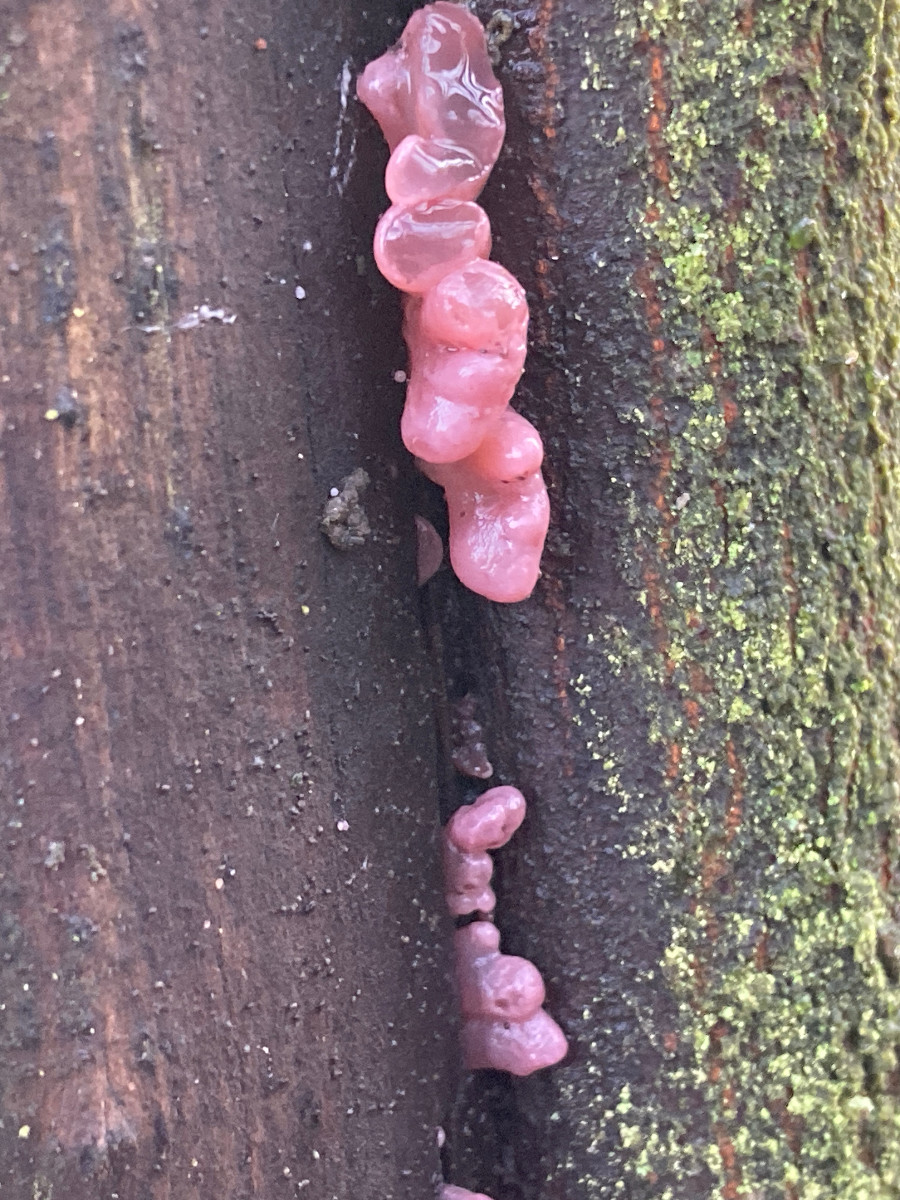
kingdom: Fungi
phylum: Ascomycota
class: Leotiomycetes
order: Helotiales
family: Gelatinodiscaceae
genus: Ascocoryne
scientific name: Ascocoryne sarcoides
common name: rødlilla sejskive
